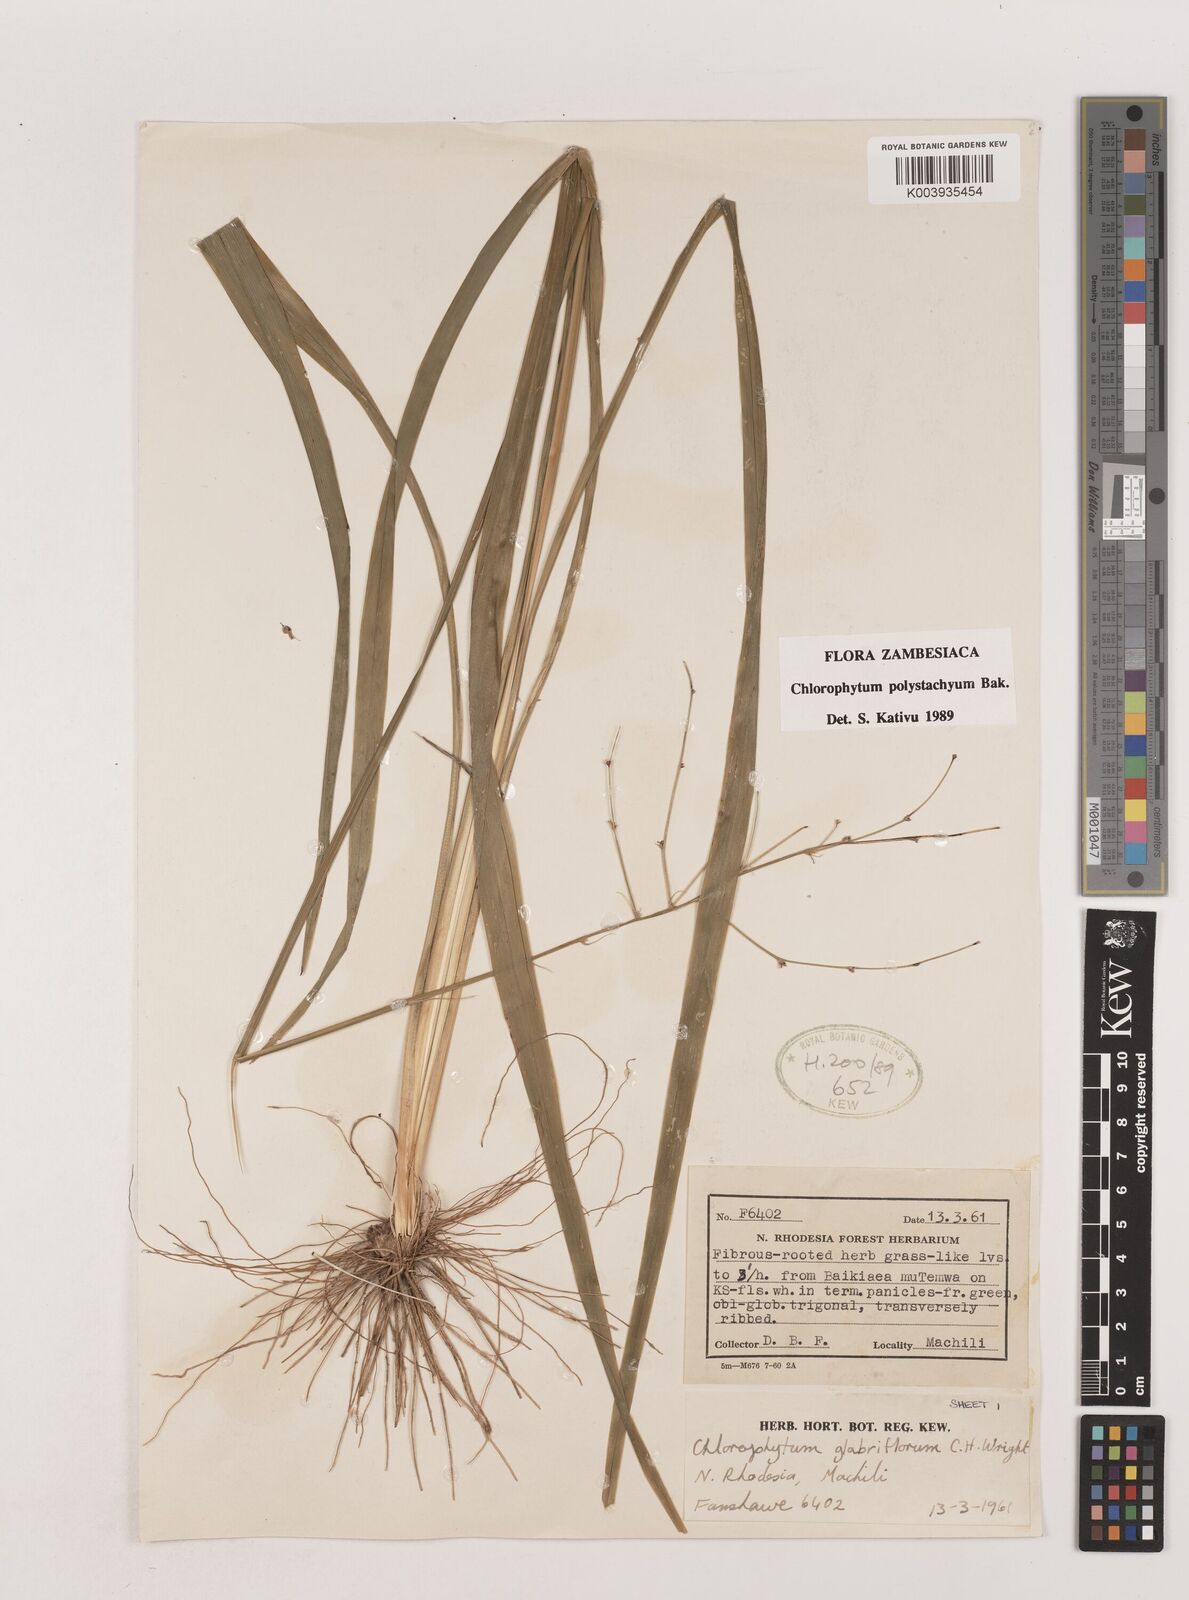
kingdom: Plantae
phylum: Tracheophyta
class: Liliopsida
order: Asparagales
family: Asparagaceae
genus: Chlorophytum
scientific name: Chlorophytum polystachys
